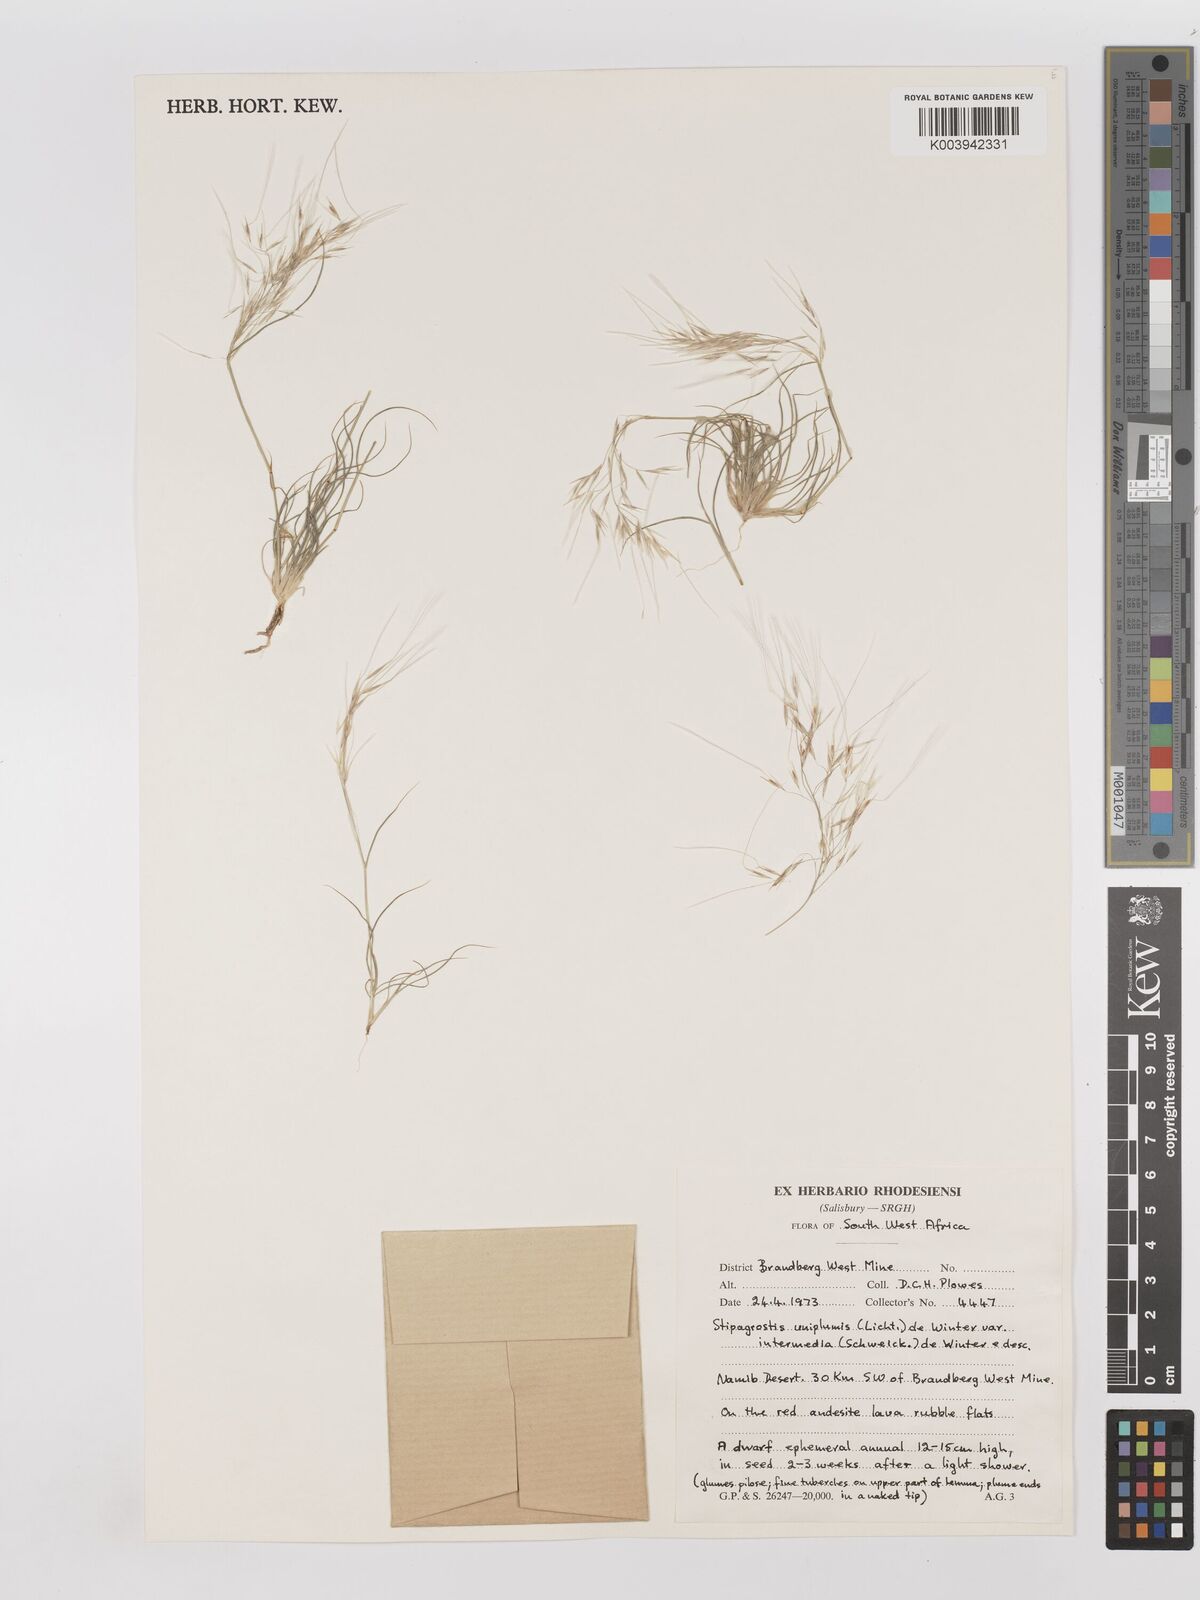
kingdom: Plantae
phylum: Tracheophyta
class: Liliopsida
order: Poales
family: Poaceae
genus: Stipagrostis
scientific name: Stipagrostis uniplumis
